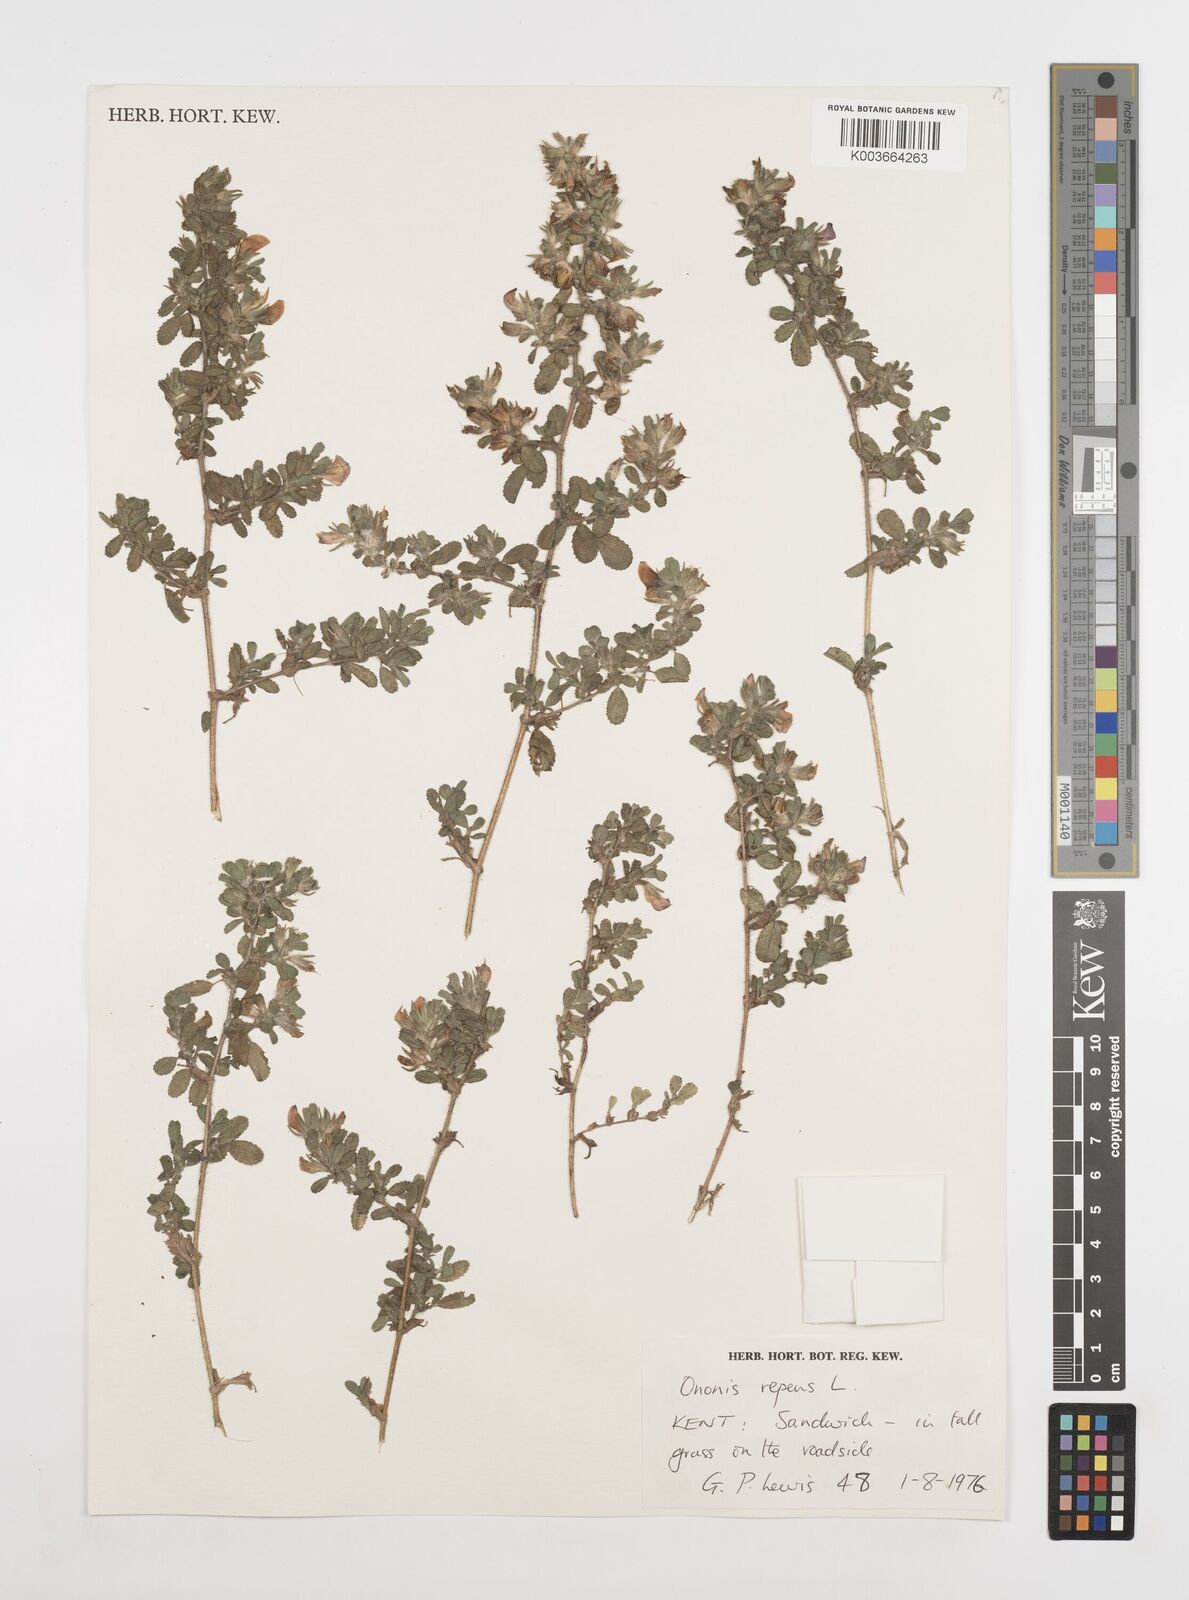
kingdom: Plantae
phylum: Tracheophyta
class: Magnoliopsida
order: Fabales
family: Fabaceae
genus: Ononis
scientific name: Ononis spinosa
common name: Spiny restharrow
